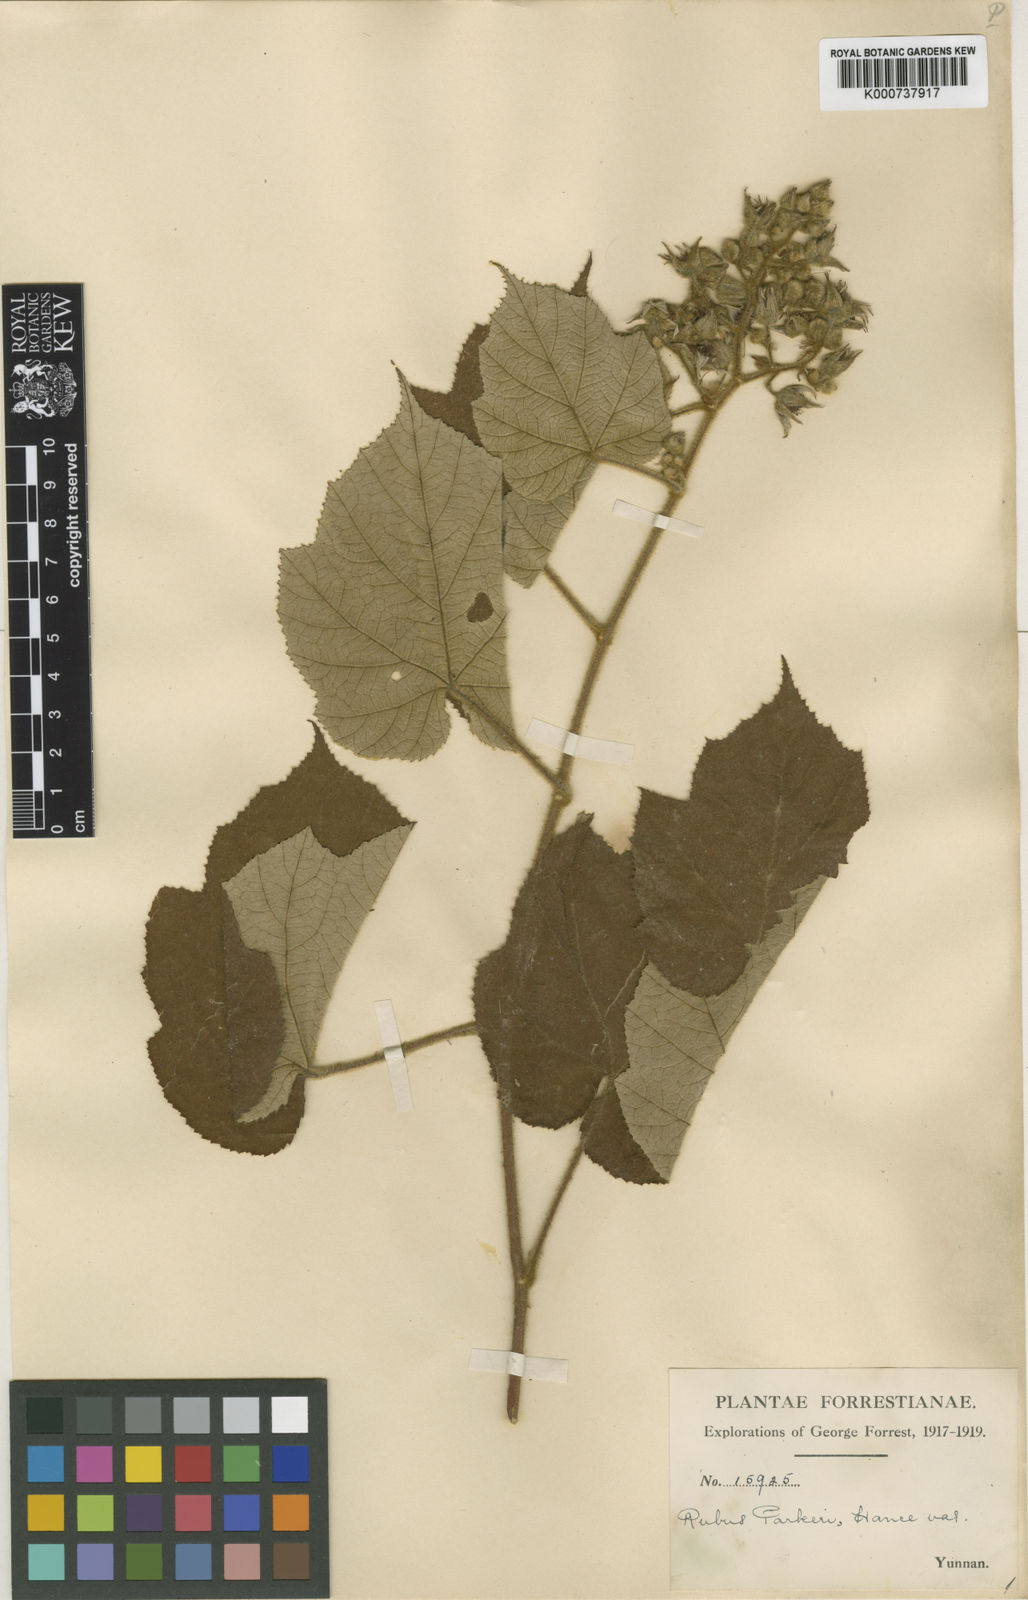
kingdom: Plantae
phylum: Tracheophyta
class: Magnoliopsida
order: Rosales
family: Rosaceae
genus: Rubus
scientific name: Rubus
